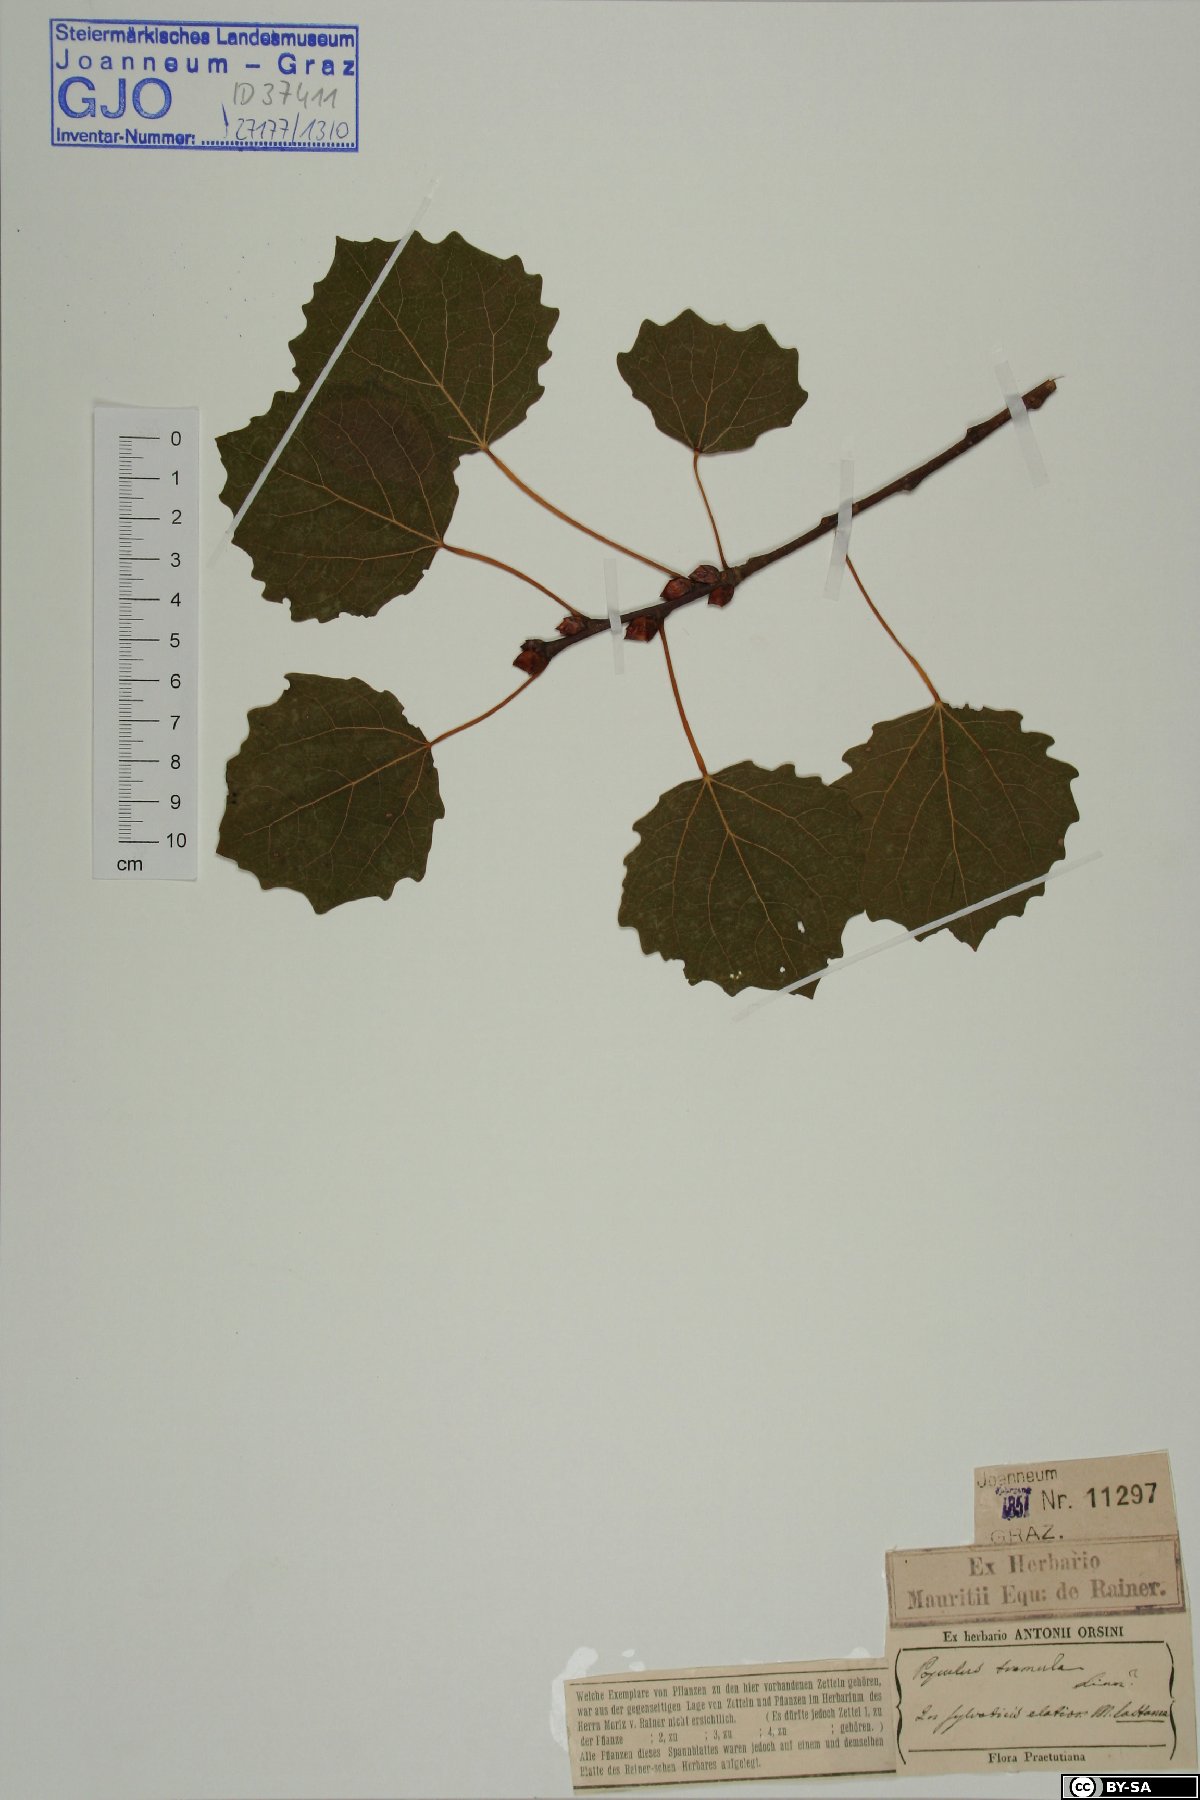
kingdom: Plantae
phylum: Tracheophyta
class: Magnoliopsida
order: Malpighiales
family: Salicaceae
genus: Populus
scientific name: Populus tremula
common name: European aspen
